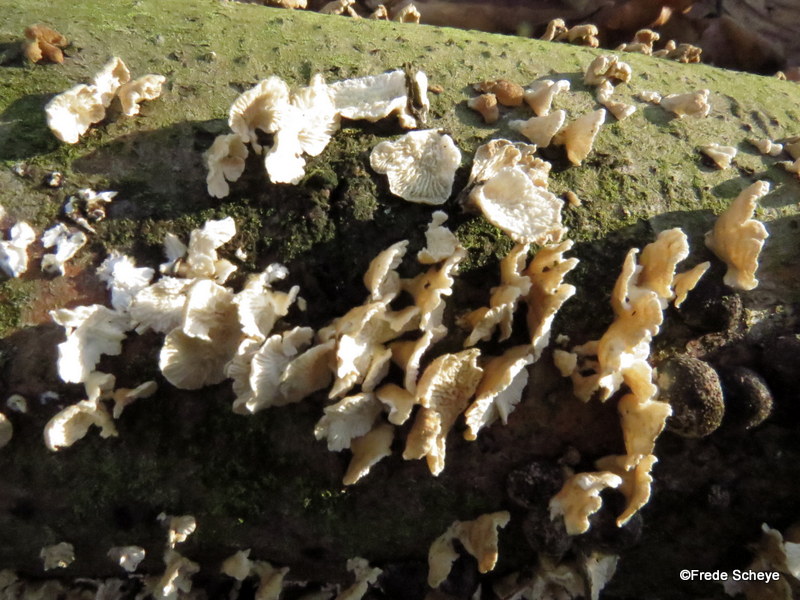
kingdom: Fungi
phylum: Basidiomycota
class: Agaricomycetes
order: Amylocorticiales
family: Amylocorticiaceae
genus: Plicaturopsis
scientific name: Plicaturopsis crispa
